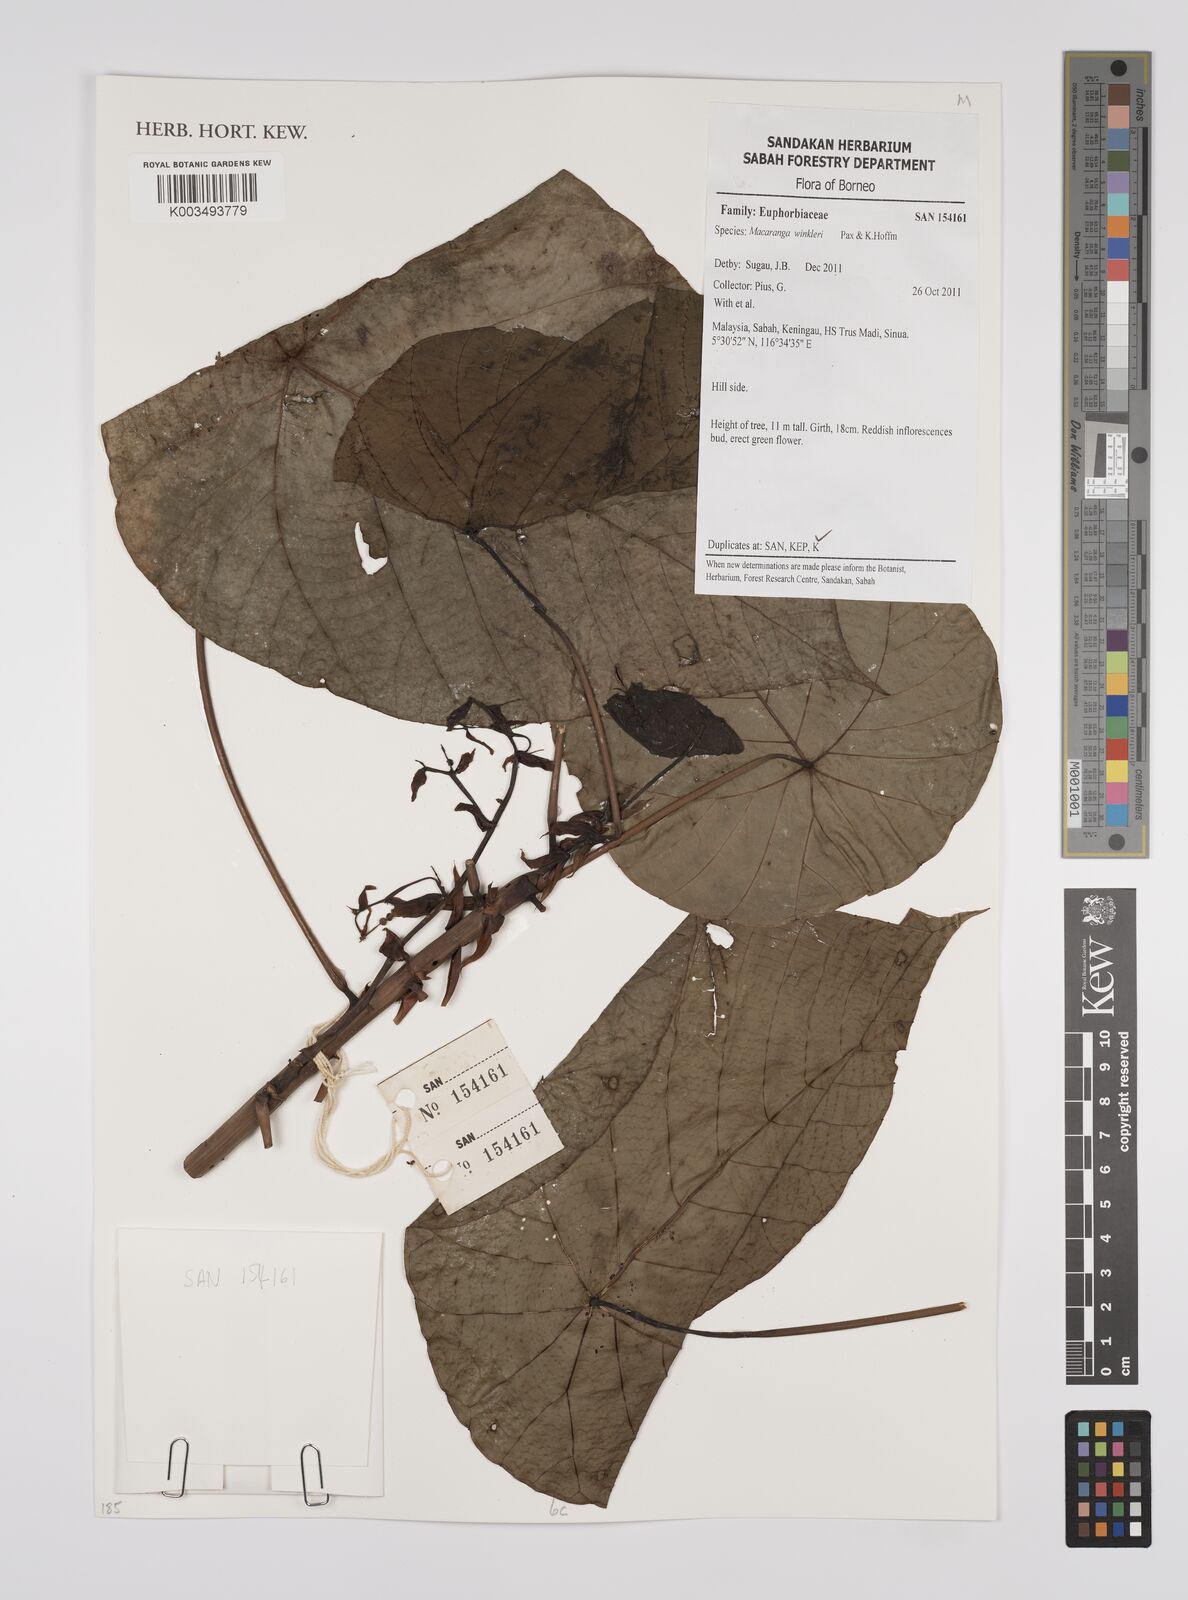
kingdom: Plantae
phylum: Tracheophyta
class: Magnoliopsida
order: Malpighiales
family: Euphorbiaceae
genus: Macaranga
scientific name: Macaranga winkleri
